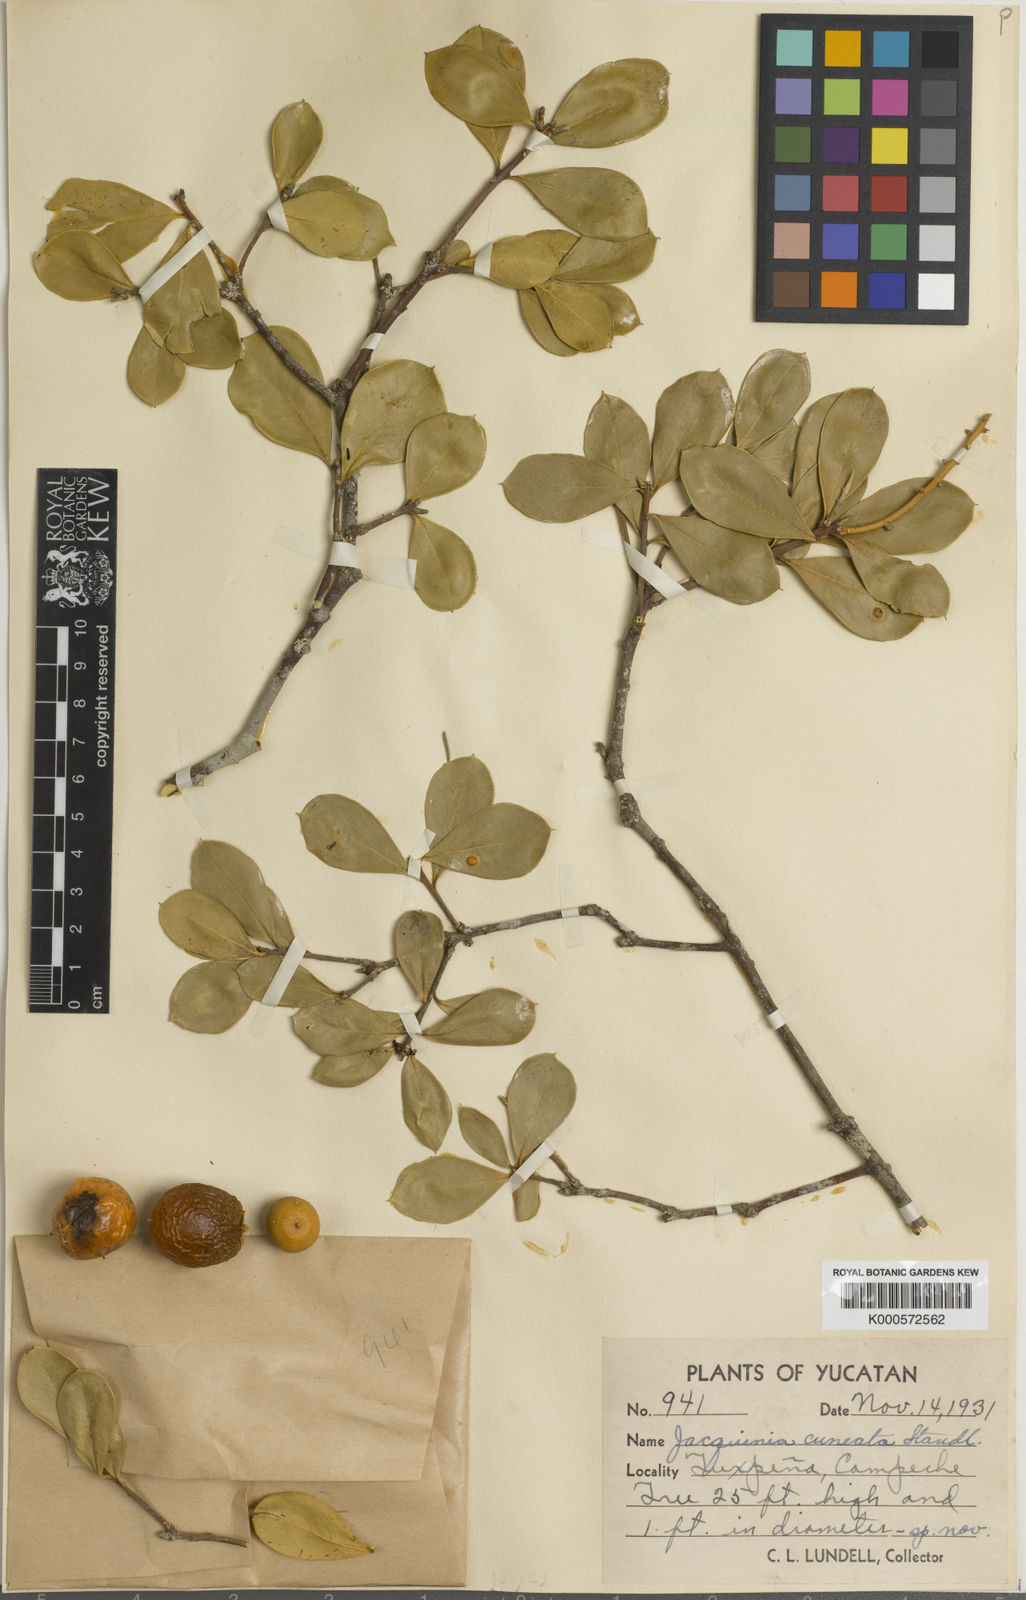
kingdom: Plantae
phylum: Tracheophyta
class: Magnoliopsida
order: Ericales
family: Primulaceae
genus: Bonellia
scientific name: Bonellia macrocarpa
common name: Primrose
